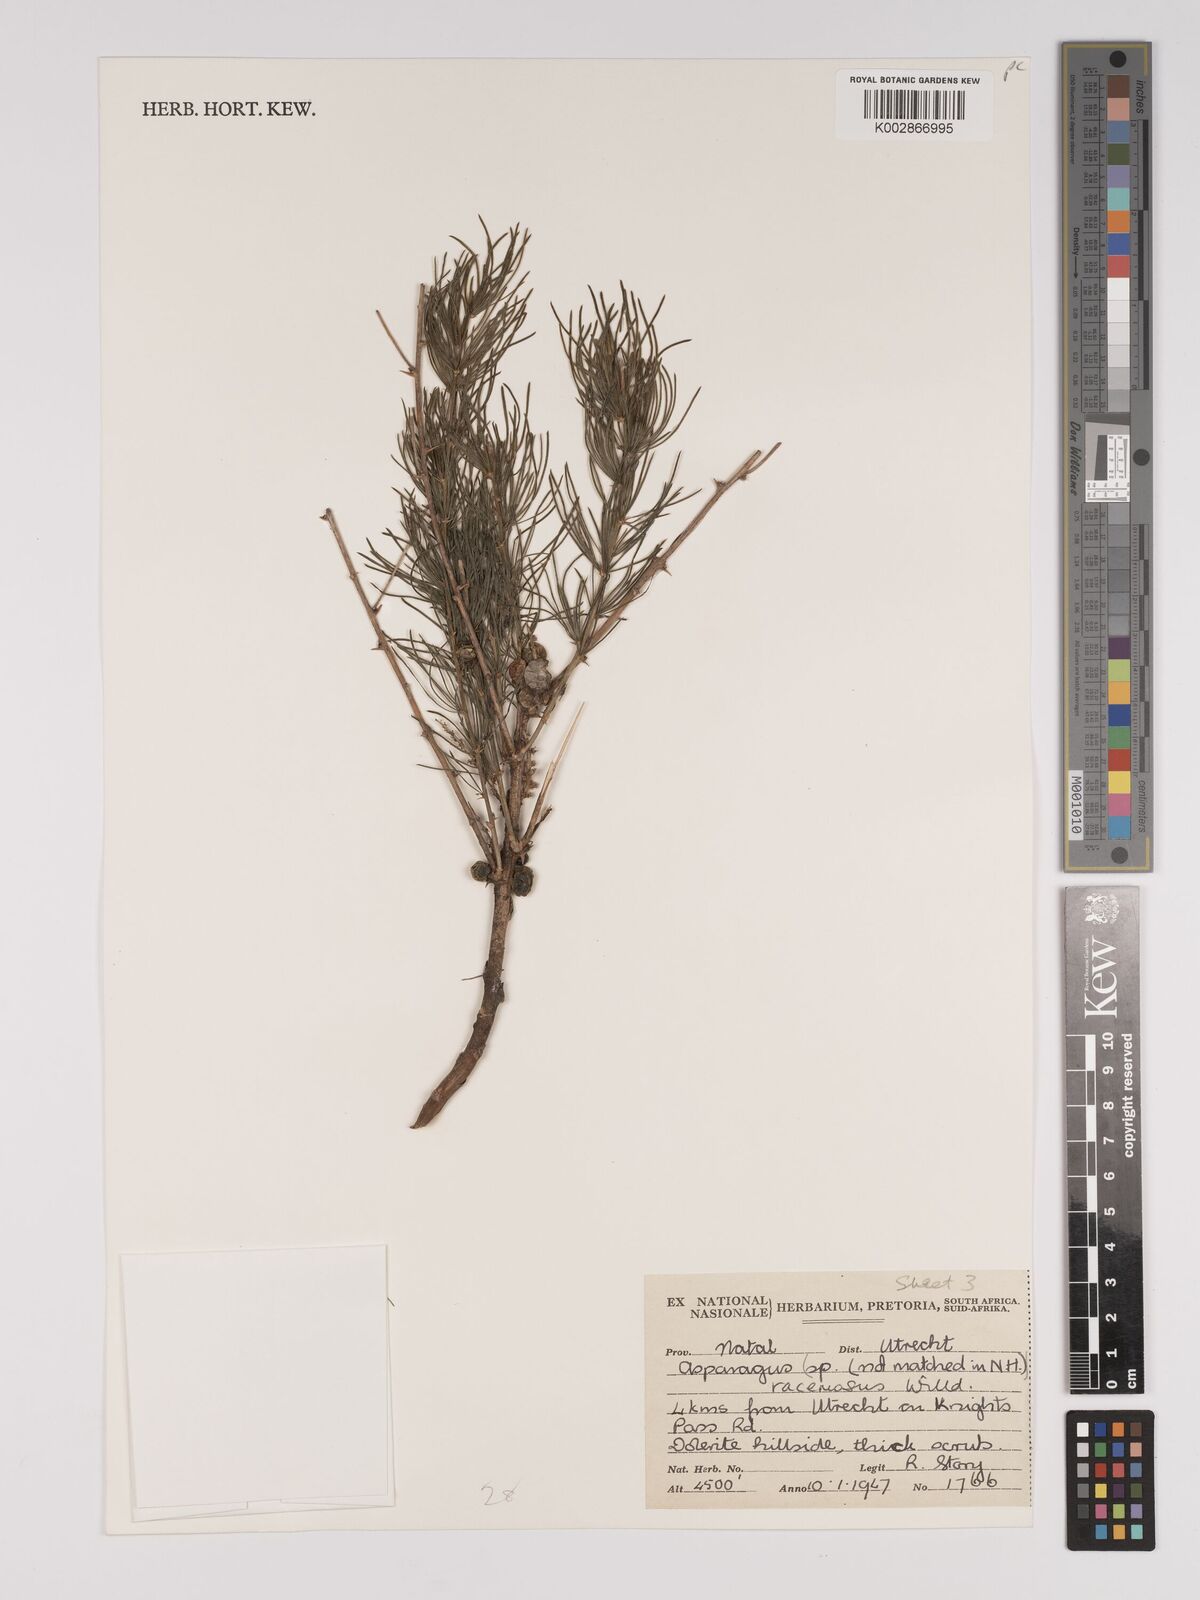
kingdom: Plantae
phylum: Tracheophyta
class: Liliopsida
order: Asparagales
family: Asparagaceae
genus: Asparagus
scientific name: Asparagus racemosus
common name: Asparagus-fern
